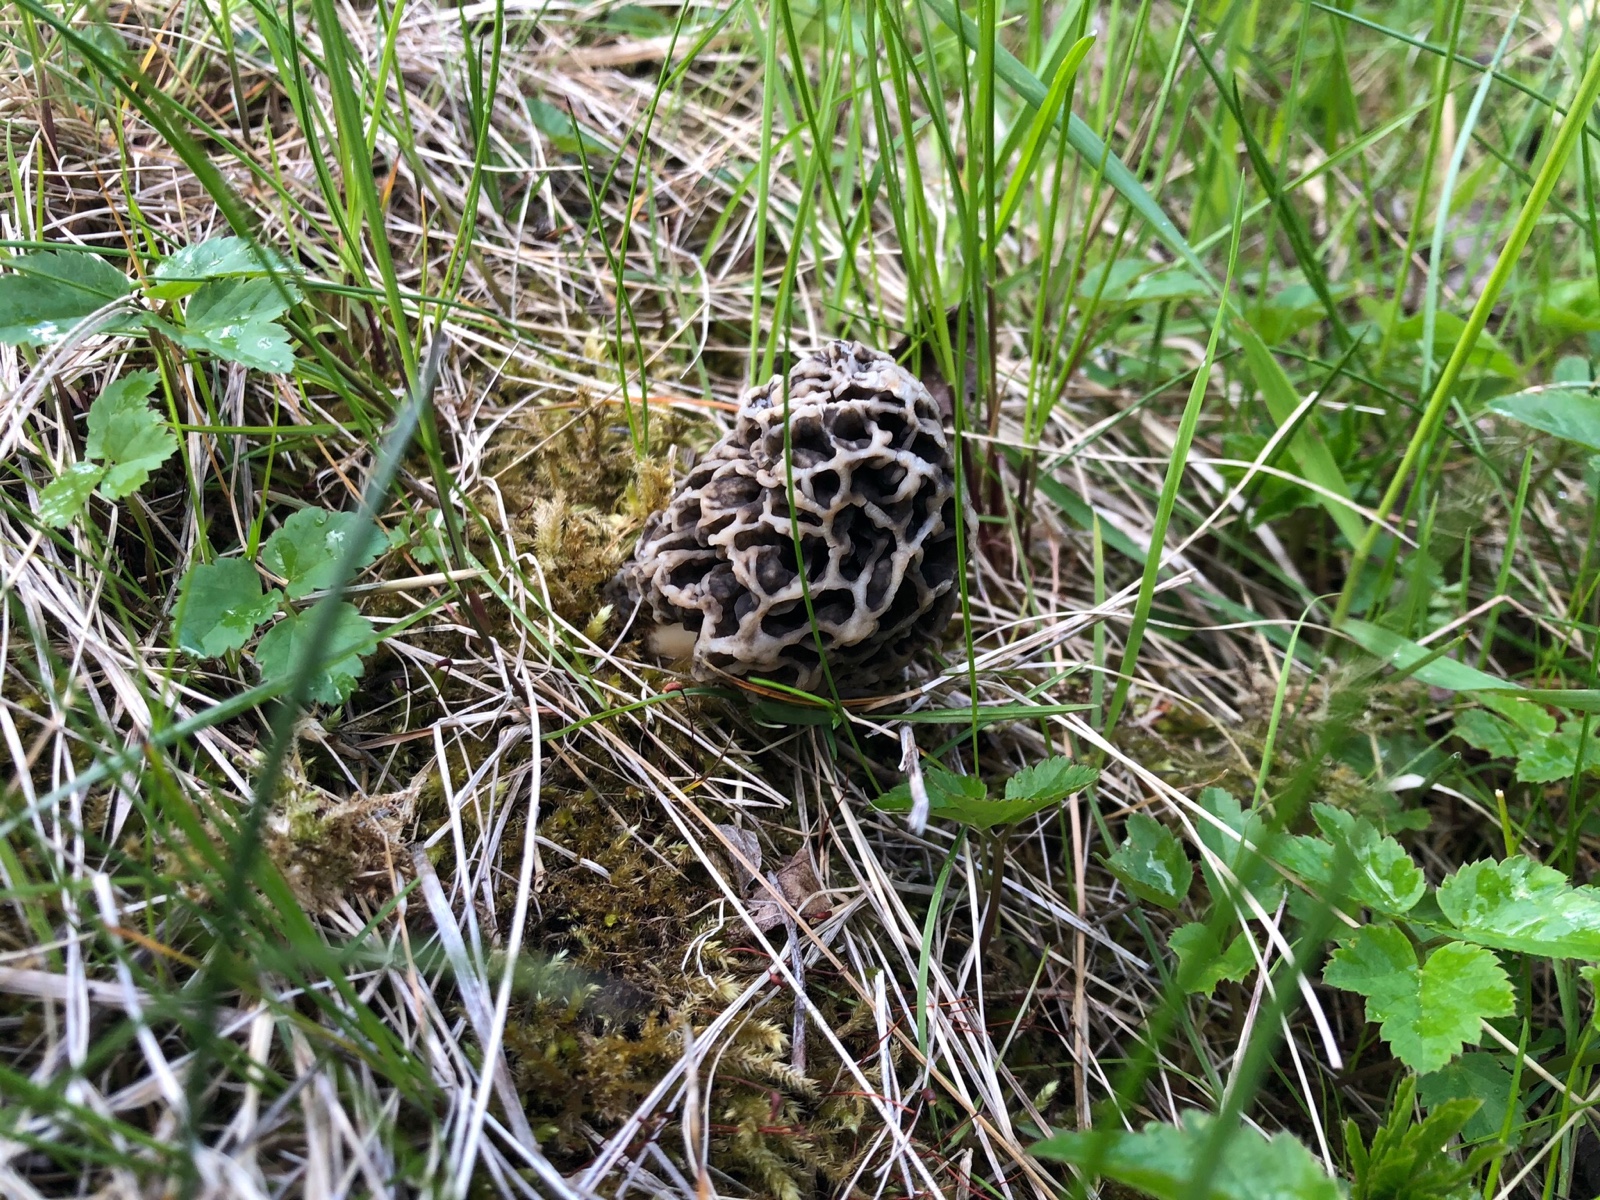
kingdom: Fungi
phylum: Ascomycota
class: Pezizomycetes
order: Pezizales
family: Morchellaceae
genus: Morchella
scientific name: Morchella esculenta
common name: almindelig morkel
